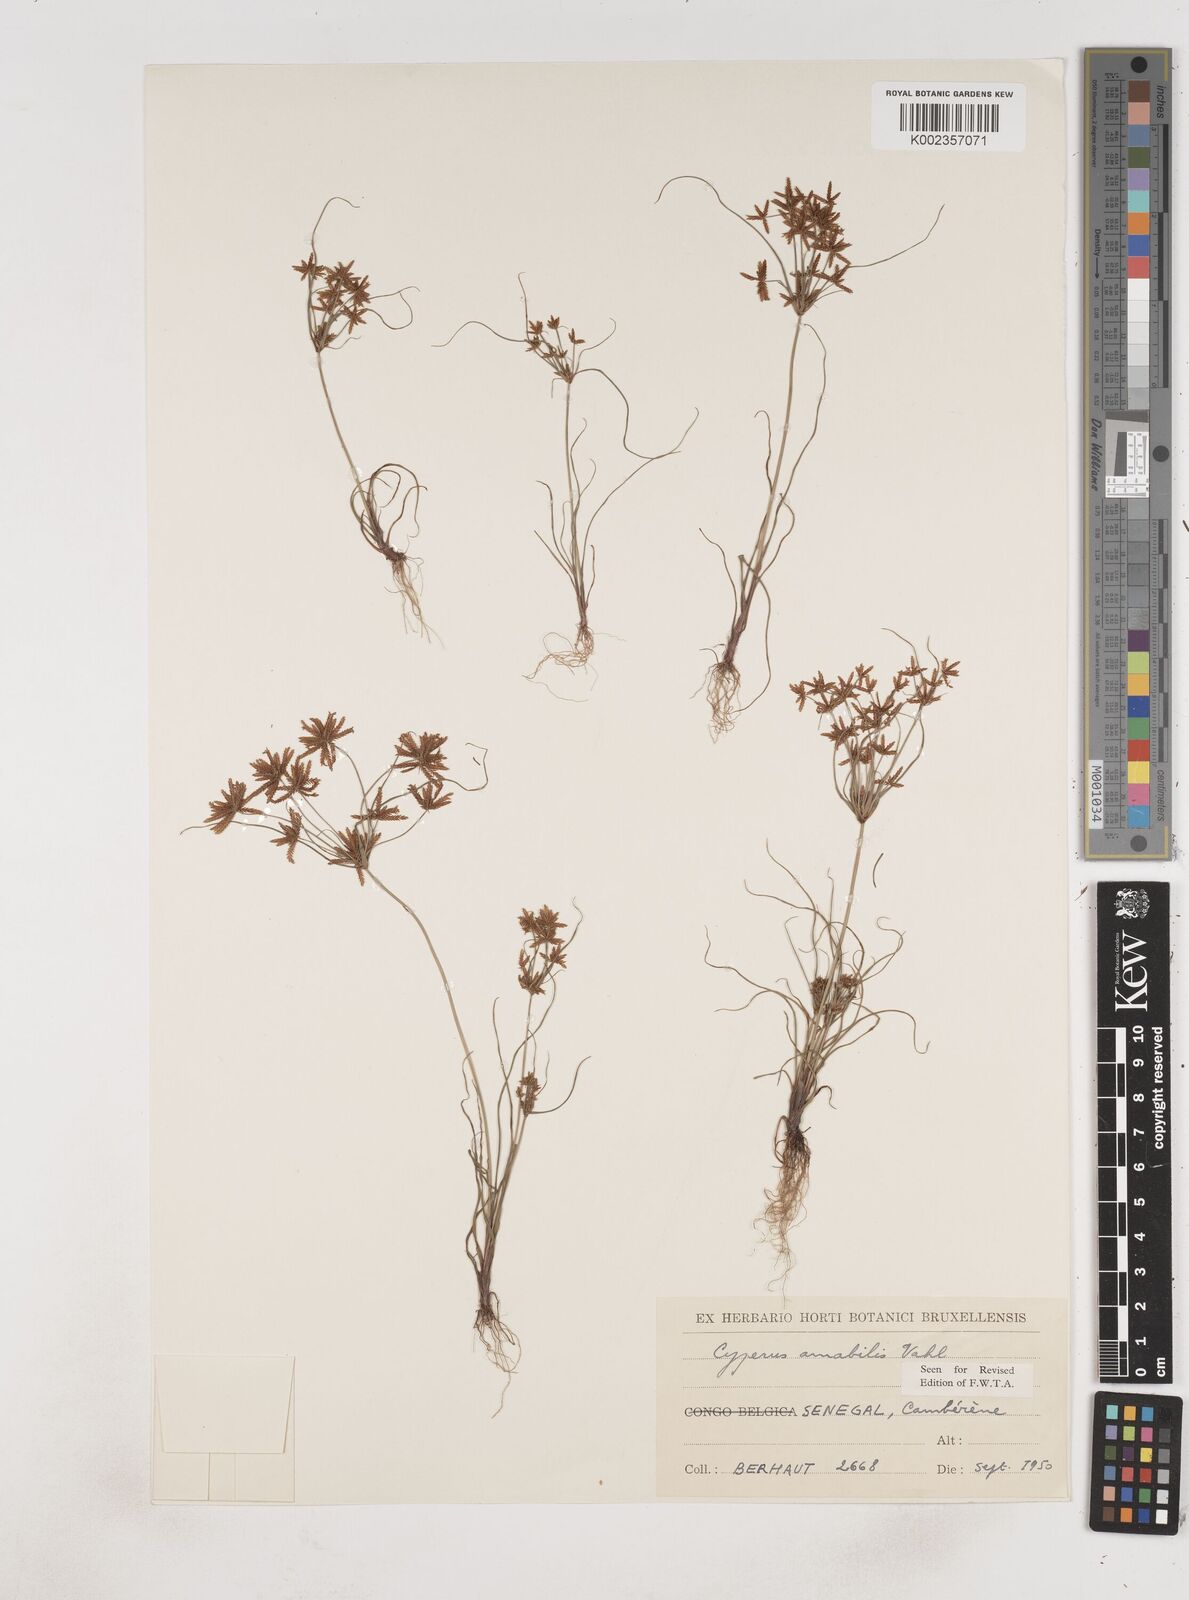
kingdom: Plantae
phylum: Tracheophyta
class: Liliopsida
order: Poales
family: Cyperaceae
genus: Cyperus
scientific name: Cyperus amabilis
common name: Foothill flat sedge
